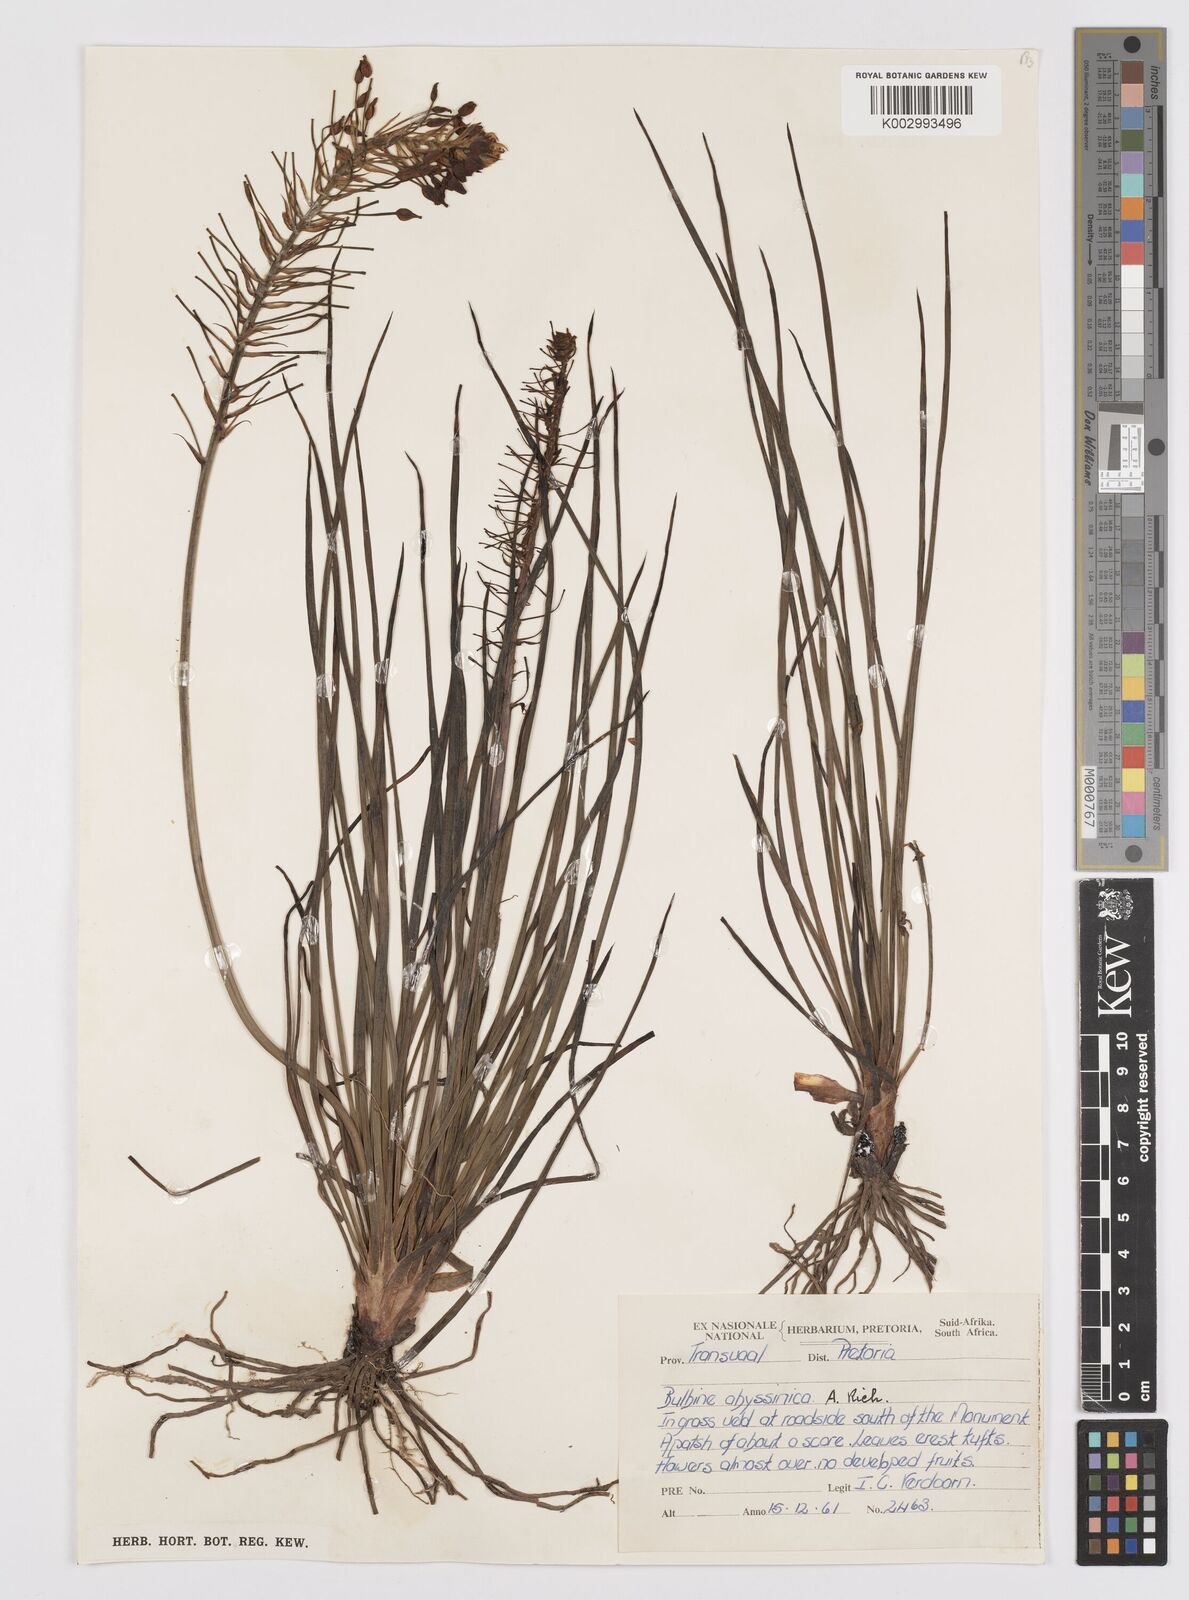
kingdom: Plantae
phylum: Tracheophyta
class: Liliopsida
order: Asparagales
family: Asphodelaceae
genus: Bulbine
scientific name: Bulbine abyssinica
